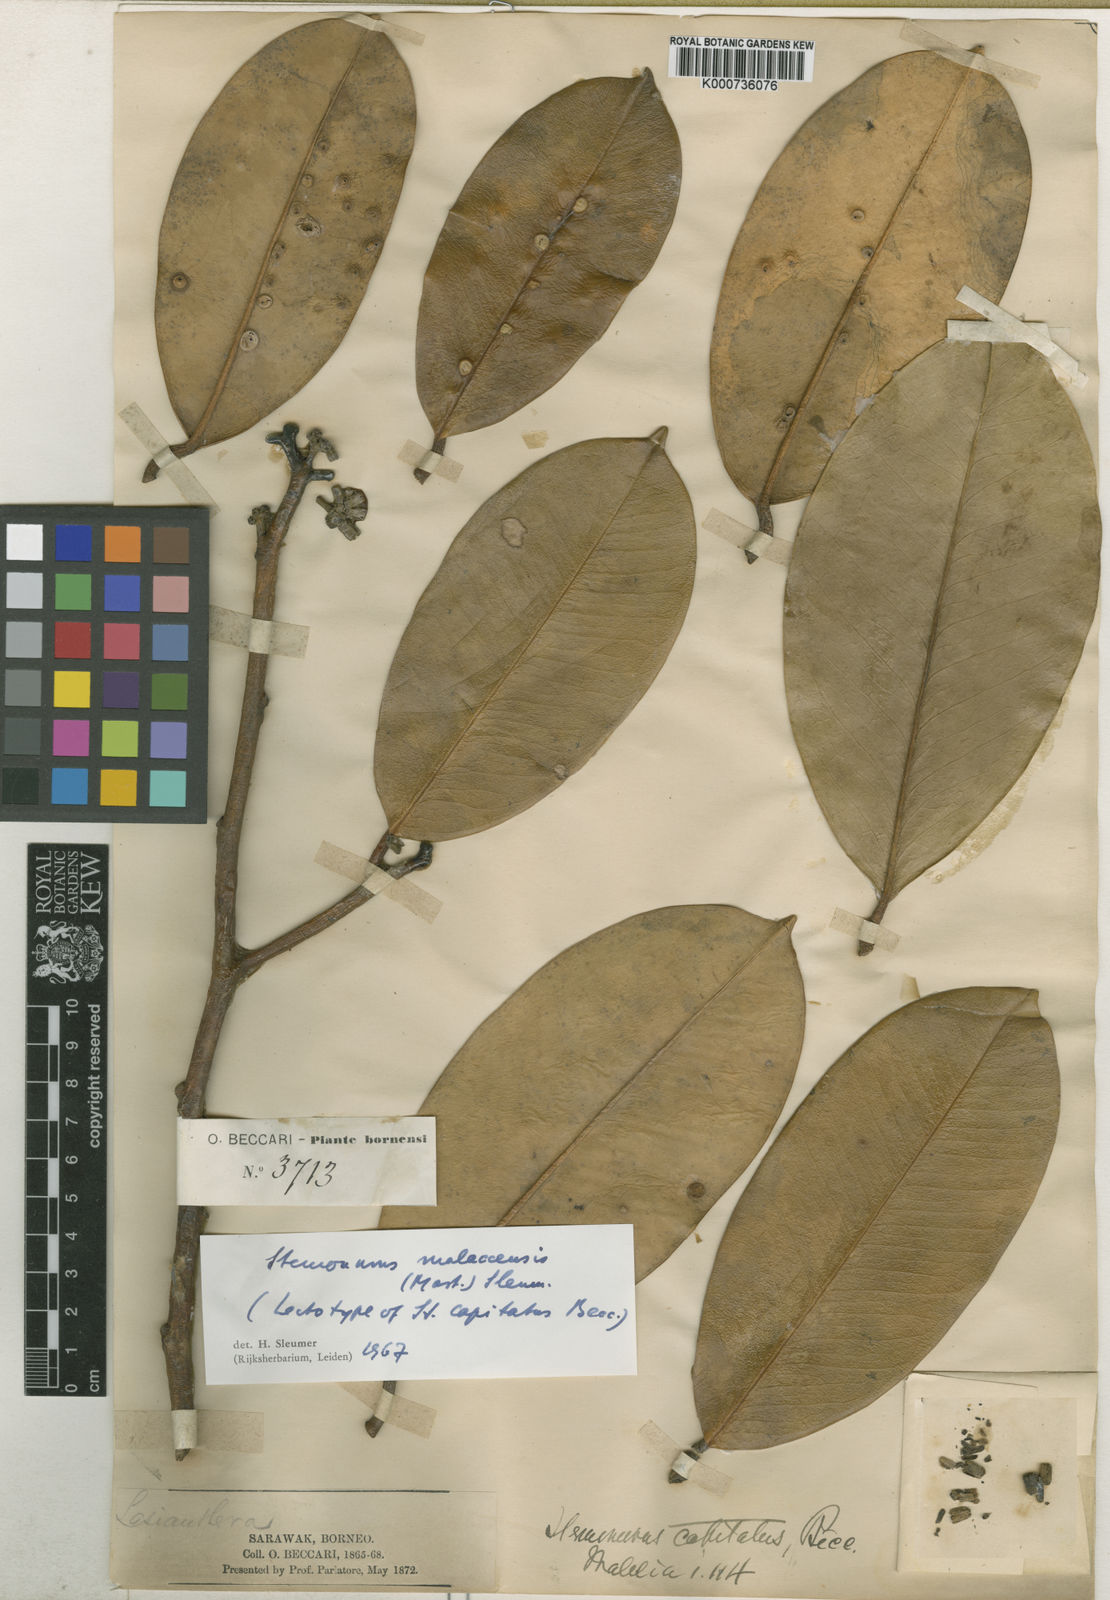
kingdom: Plantae
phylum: Tracheophyta
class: Magnoliopsida
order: Cardiopteridales
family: Stemonuraceae
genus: Stemonurus
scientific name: Stemonurus malaccensis
